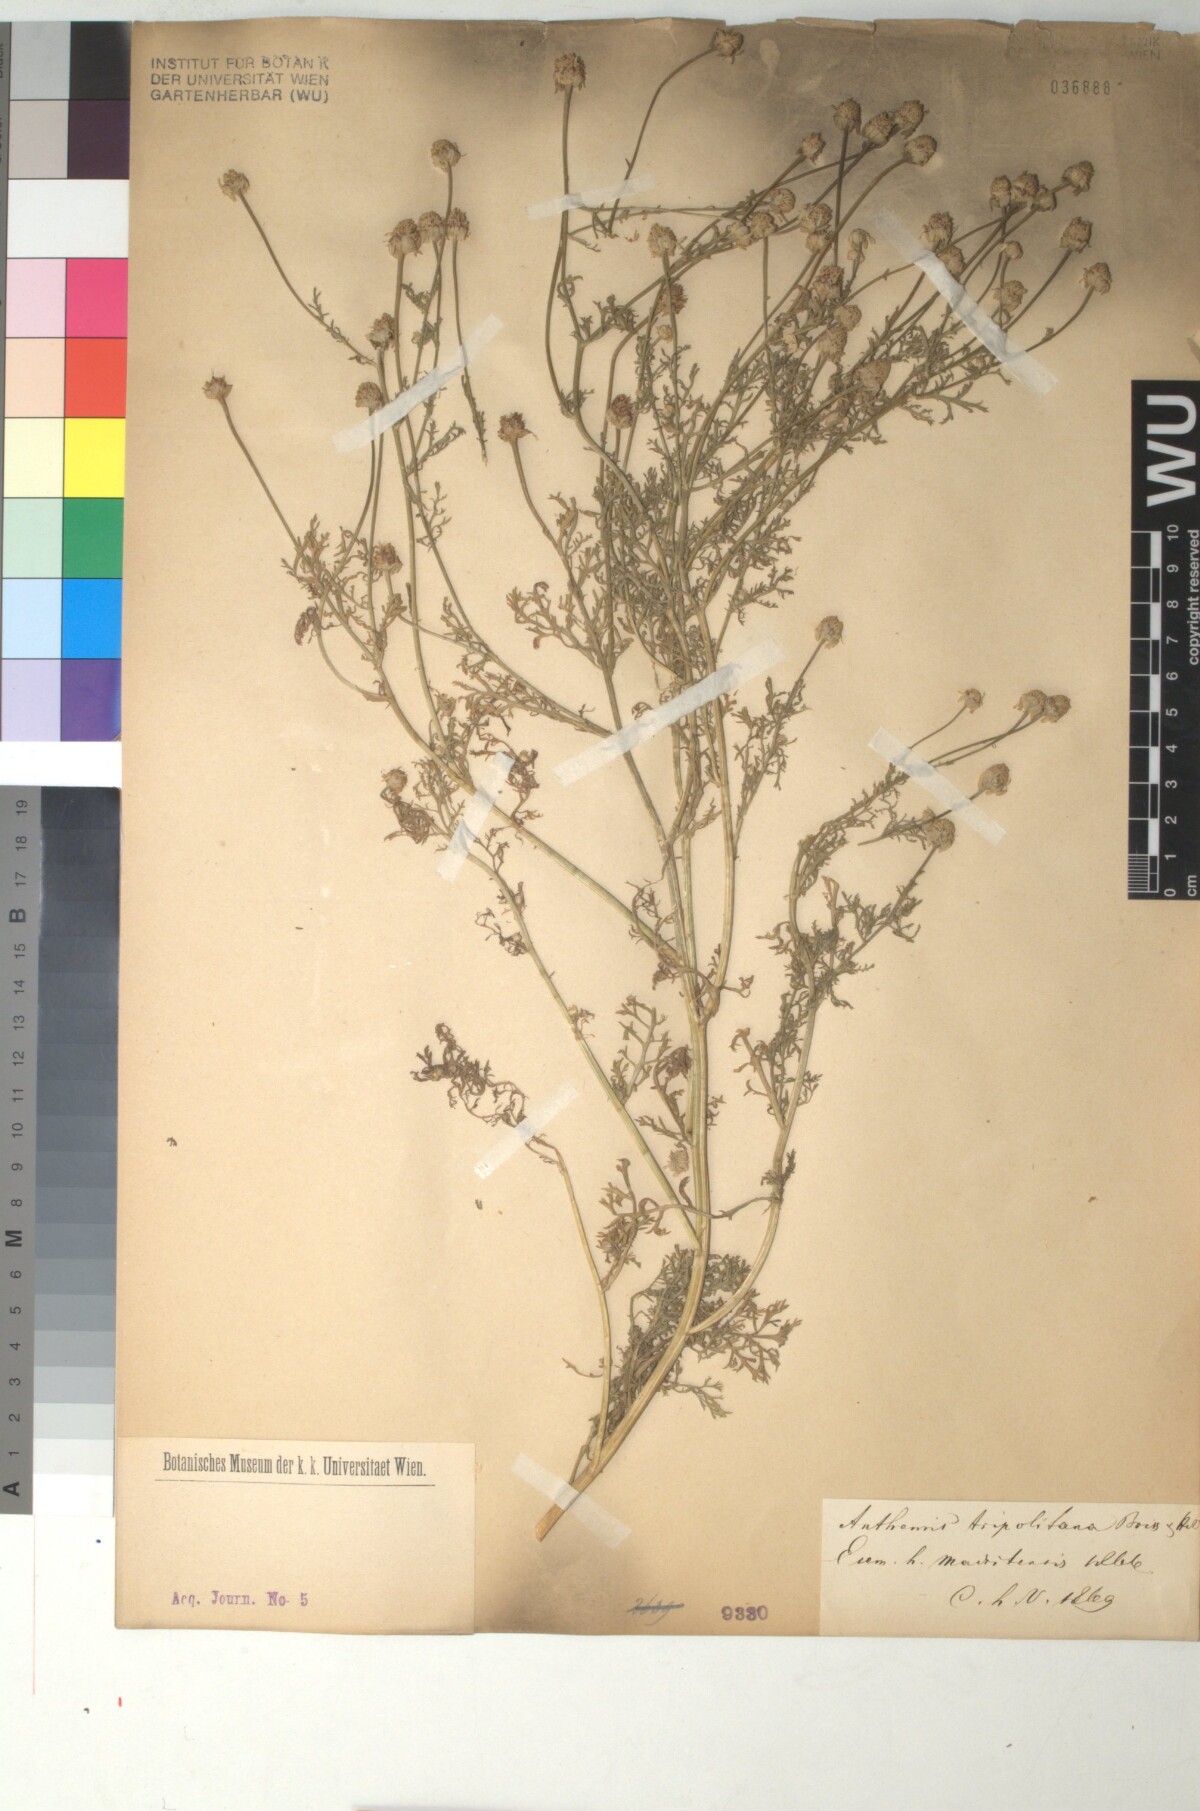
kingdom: Plantae
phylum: Tracheophyta
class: Magnoliopsida
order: Asterales
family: Asteraceae
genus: Anthemis
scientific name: Anthemis tripolitana
